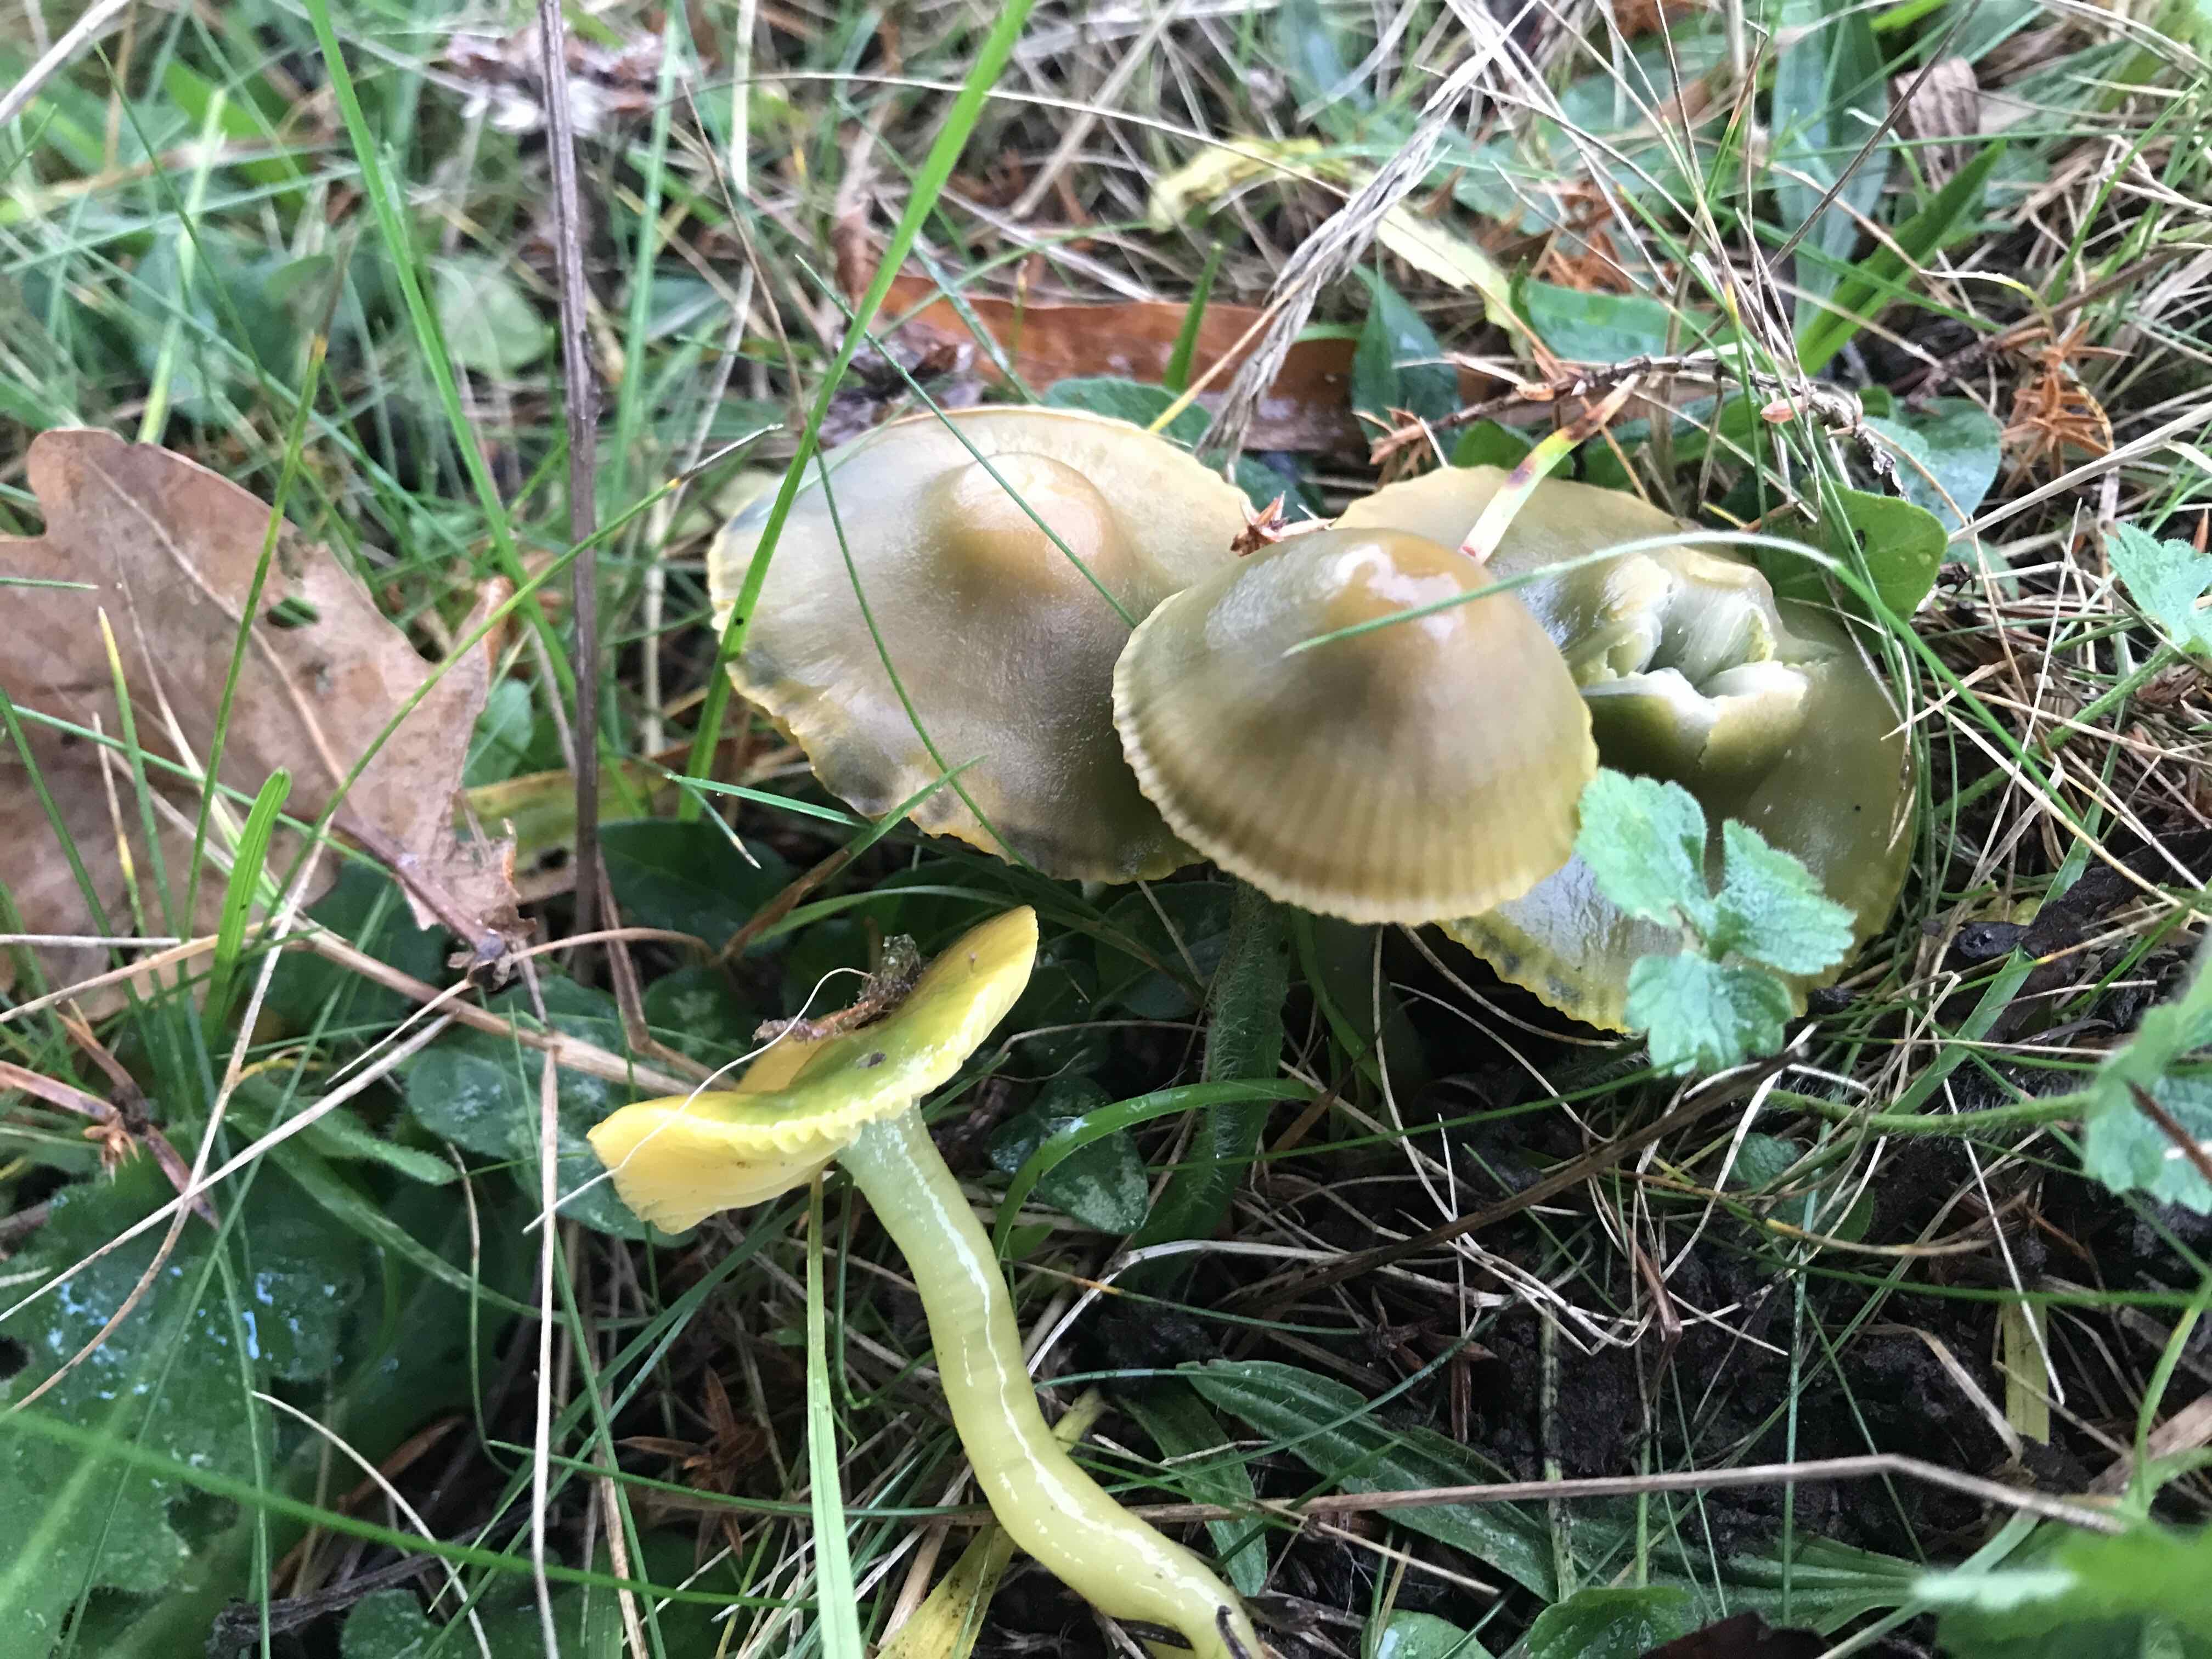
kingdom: Fungi
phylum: Basidiomycota
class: Agaricomycetes
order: Agaricales
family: Hygrophoraceae
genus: Gliophorus
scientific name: Gliophorus psittacinus
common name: papegøje-vokshat
